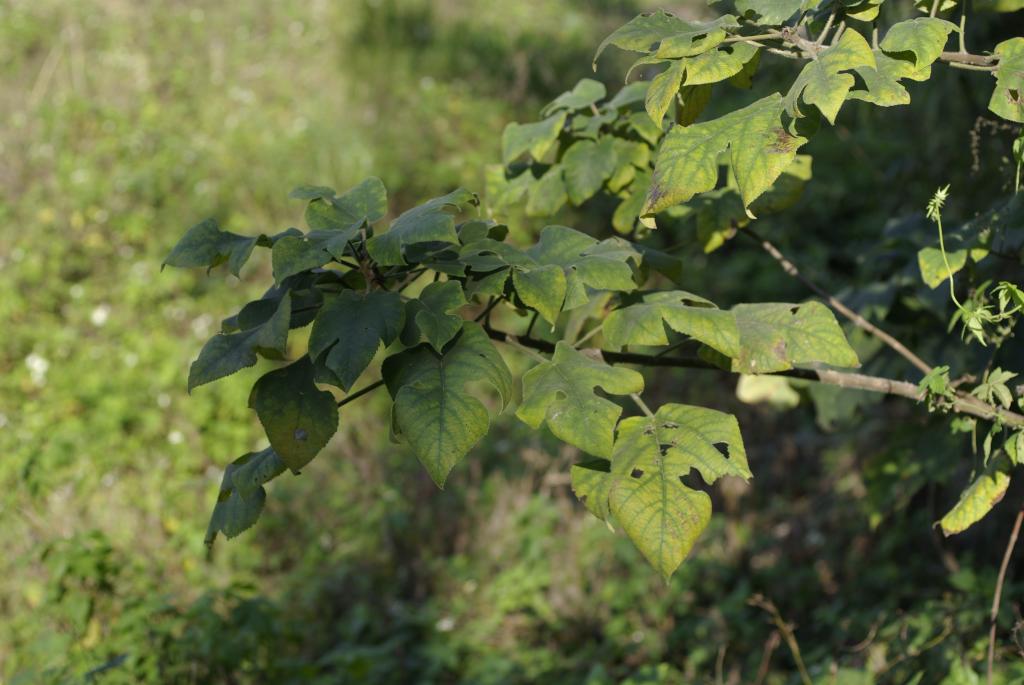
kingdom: Plantae
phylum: Tracheophyta
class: Magnoliopsida
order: Rosales
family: Moraceae
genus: Broussonetia
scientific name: Broussonetia papyrifera
